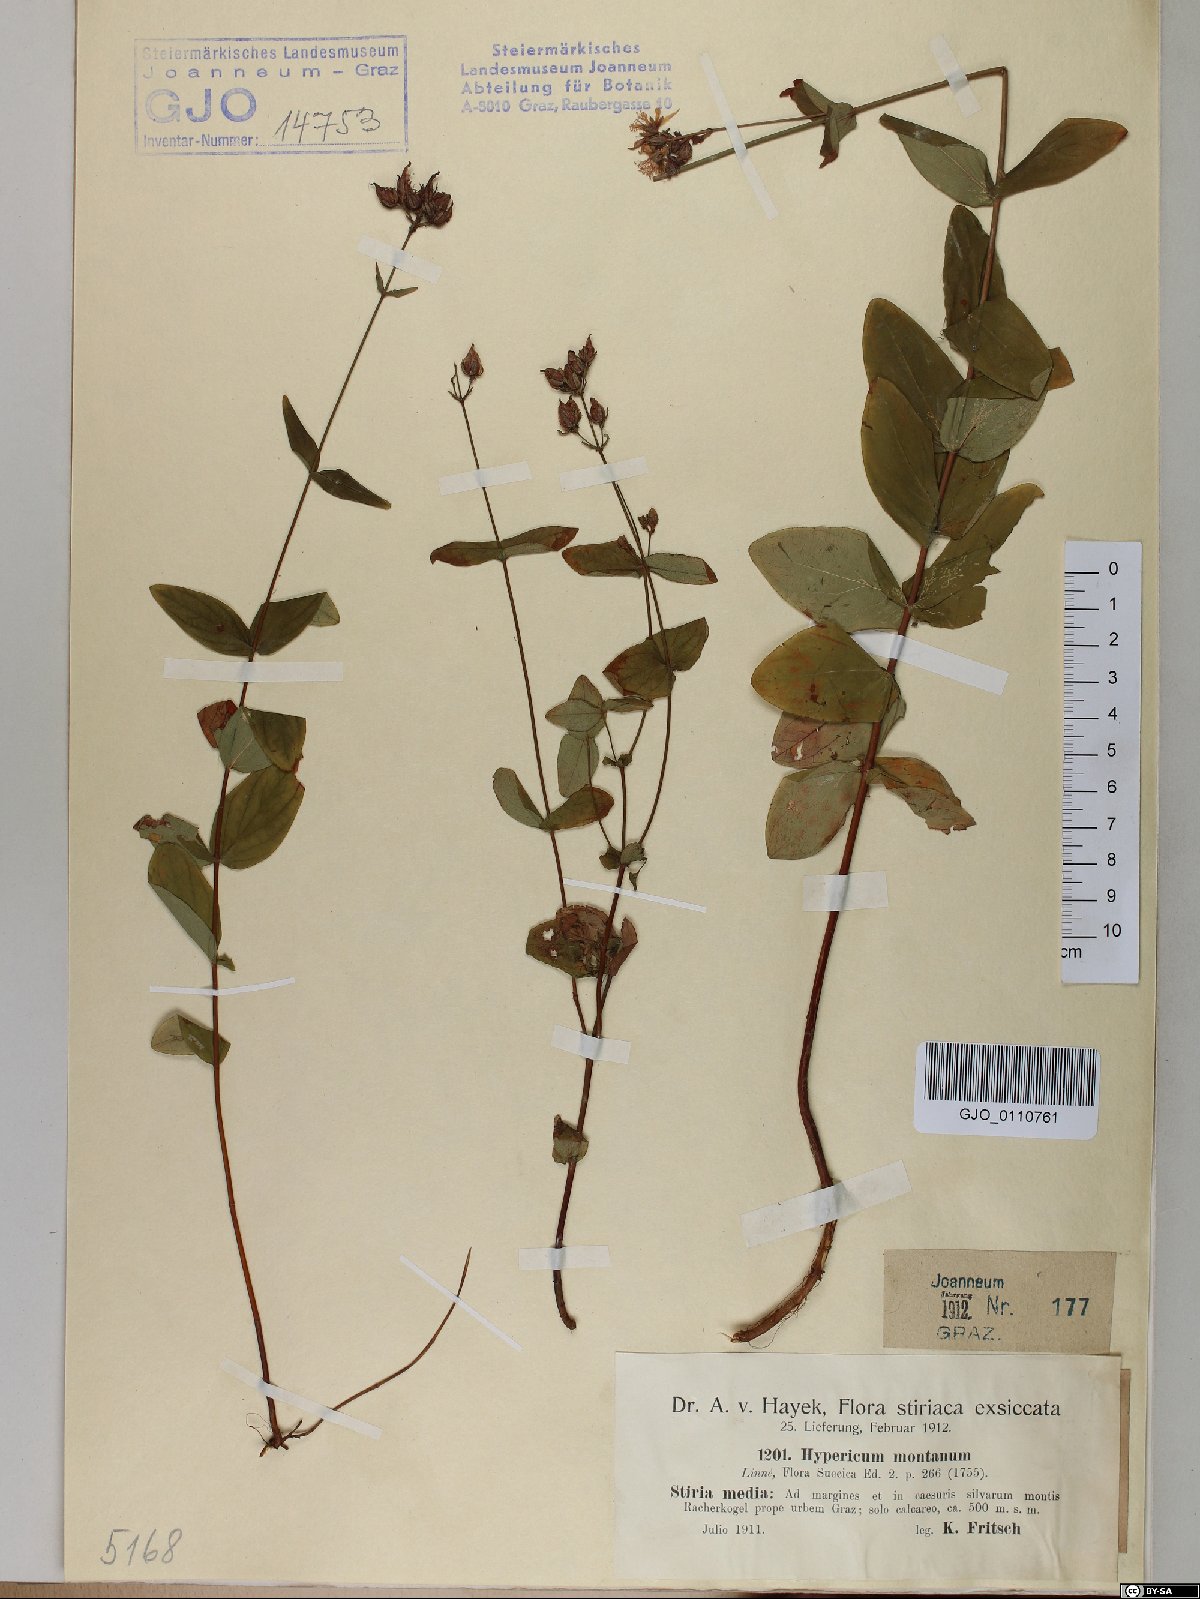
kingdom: Plantae
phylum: Tracheophyta
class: Magnoliopsida
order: Malpighiales
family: Hypericaceae
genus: Hypericum
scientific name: Hypericum montanum
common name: Pale st. john's-wort
